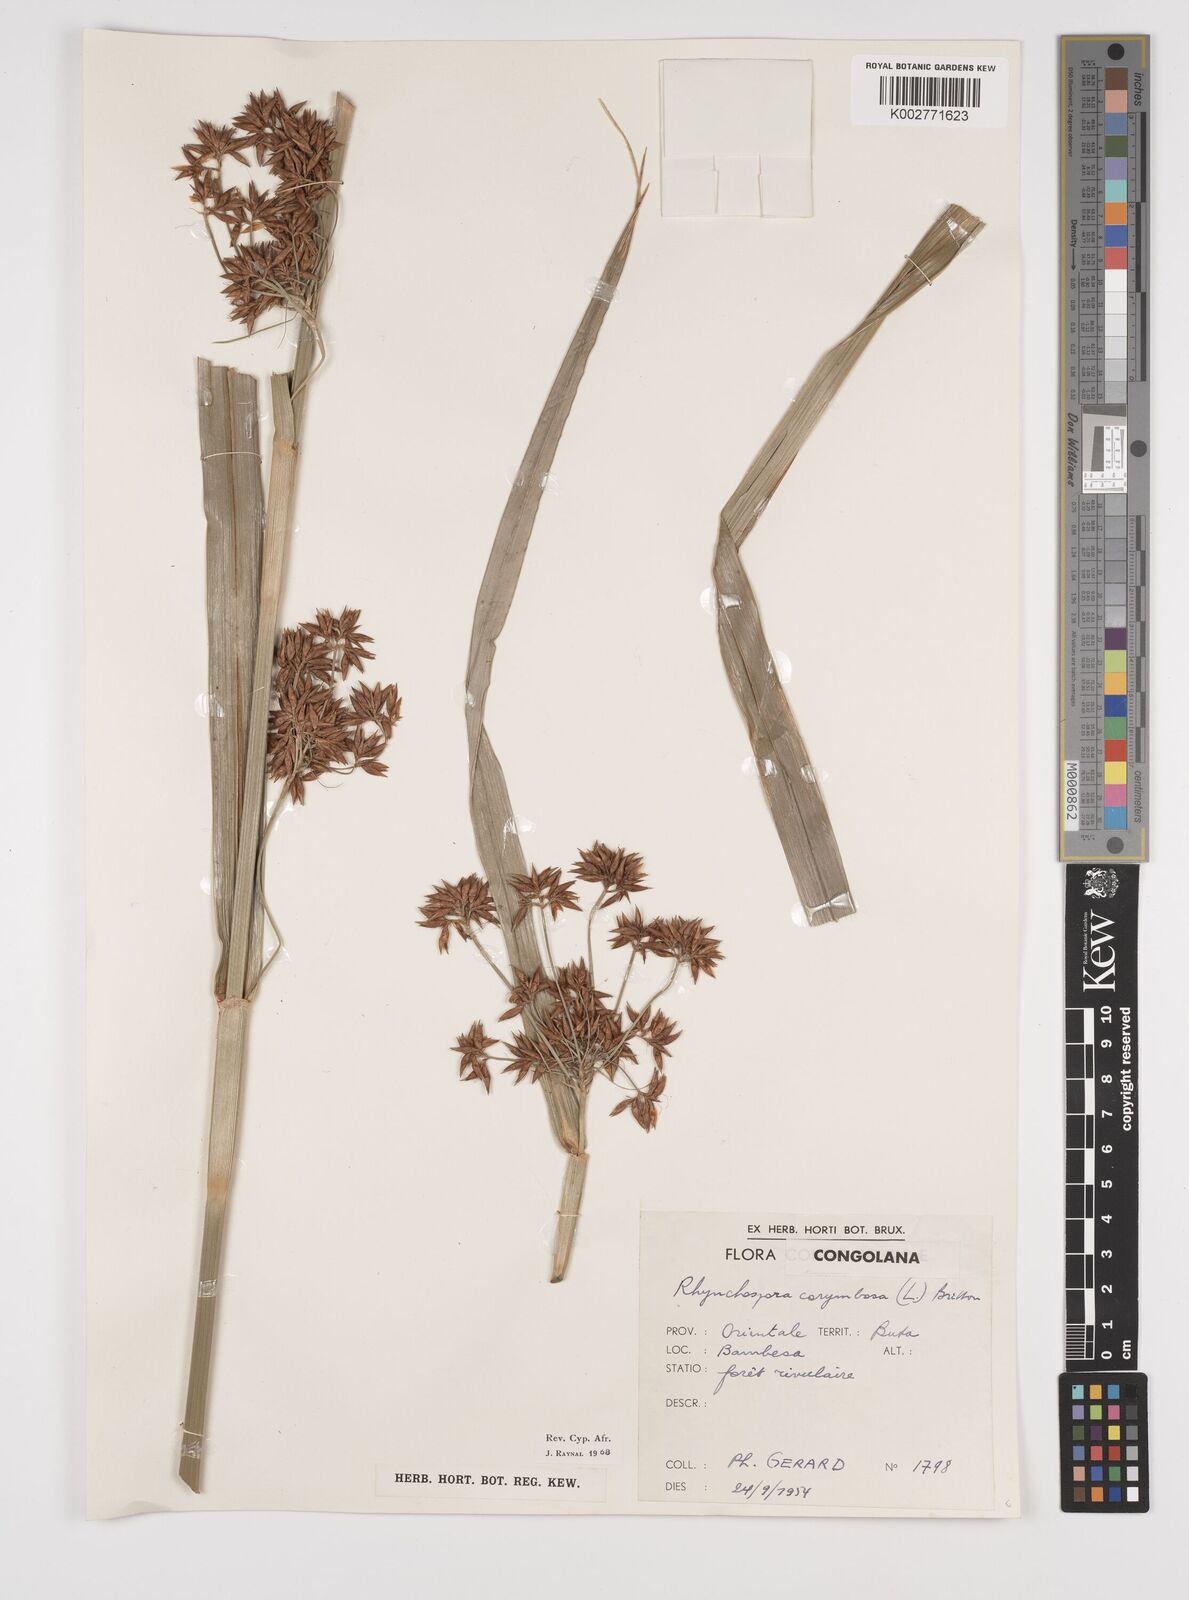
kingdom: Plantae
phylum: Tracheophyta
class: Liliopsida
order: Poales
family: Cyperaceae
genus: Rhynchospora
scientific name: Rhynchospora corymbosa
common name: Golden beak sedge
